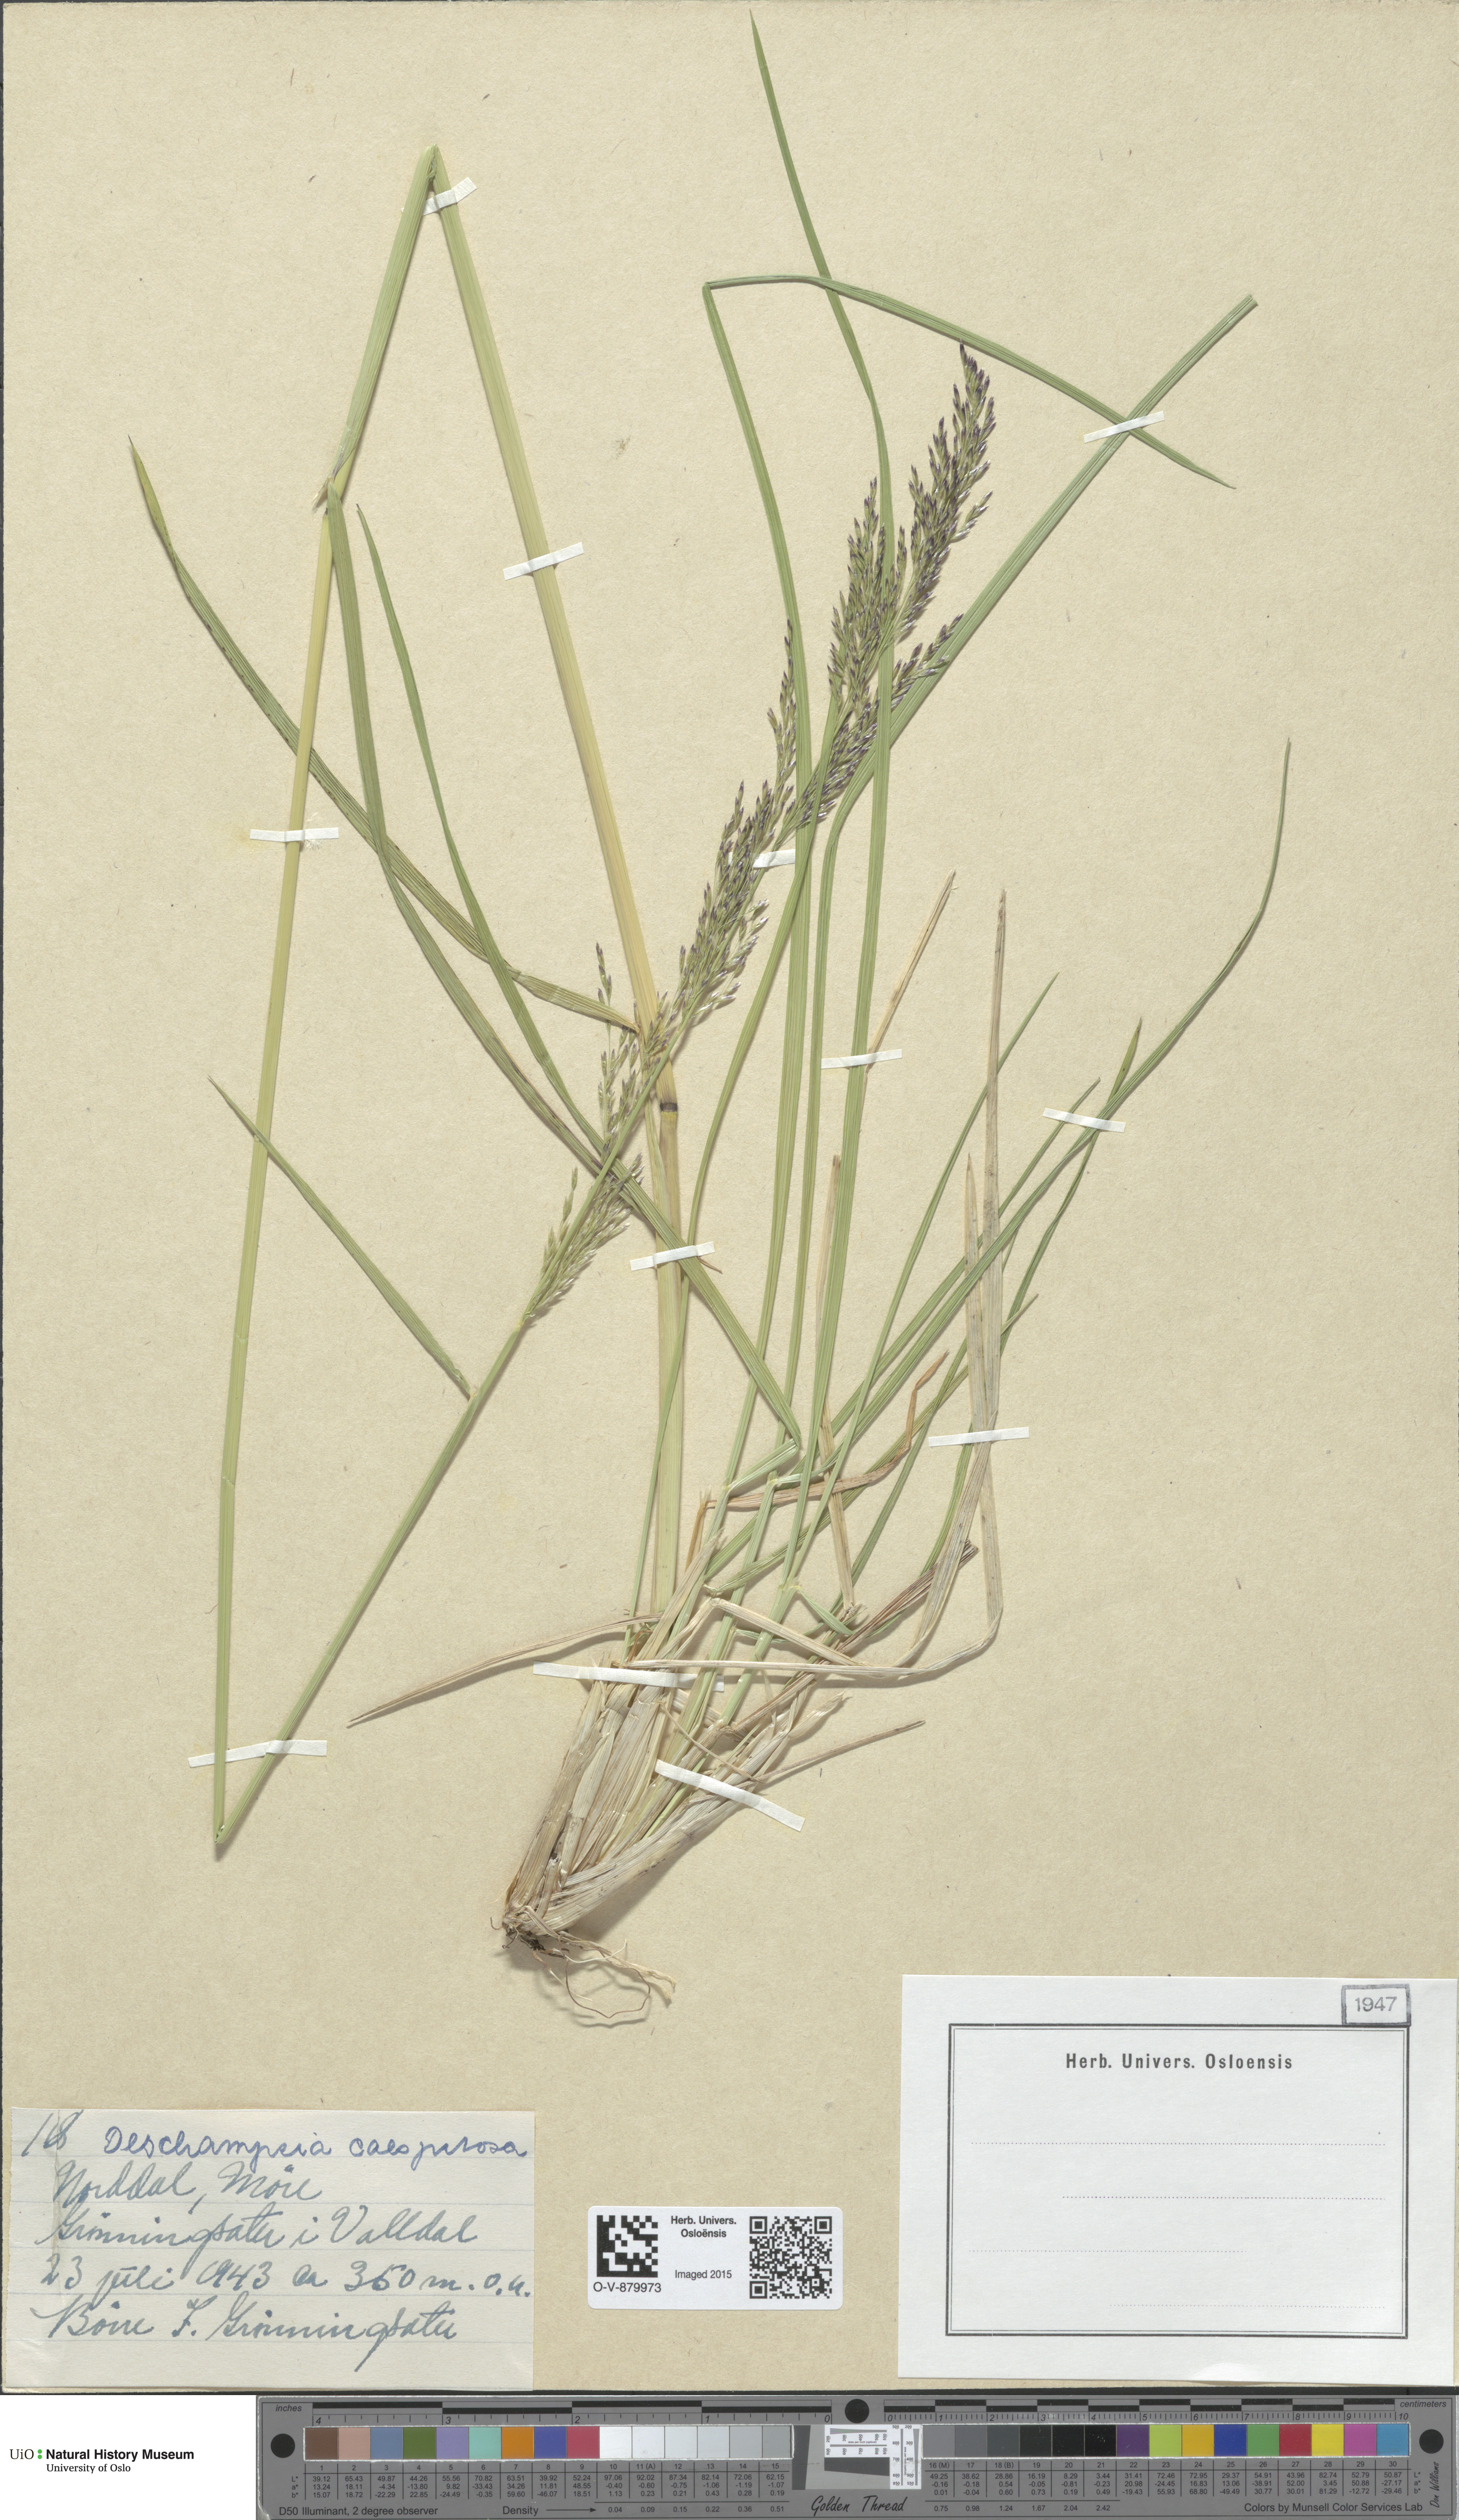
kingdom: Plantae
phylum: Tracheophyta
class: Liliopsida
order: Poales
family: Poaceae
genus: Deschampsia
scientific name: Deschampsia cespitosa
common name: Tufted hair-grass
